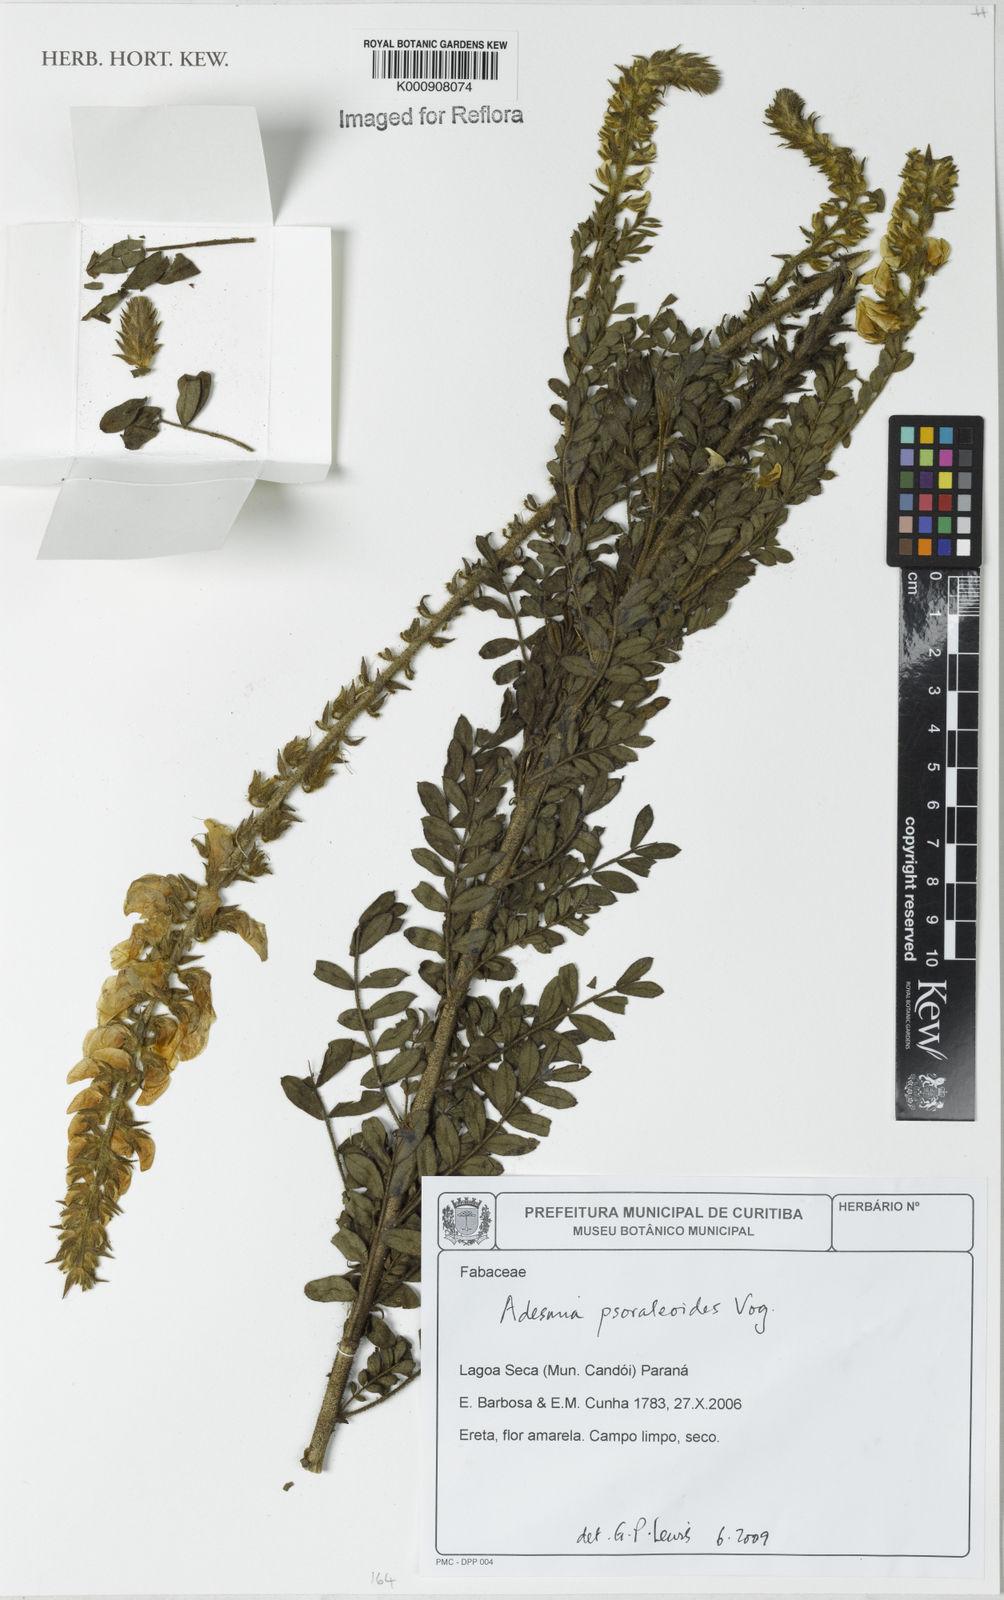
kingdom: Plantae
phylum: Tracheophyta
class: Magnoliopsida
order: Fabales
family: Fabaceae
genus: Adesmia
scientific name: Adesmia psoraleoides
